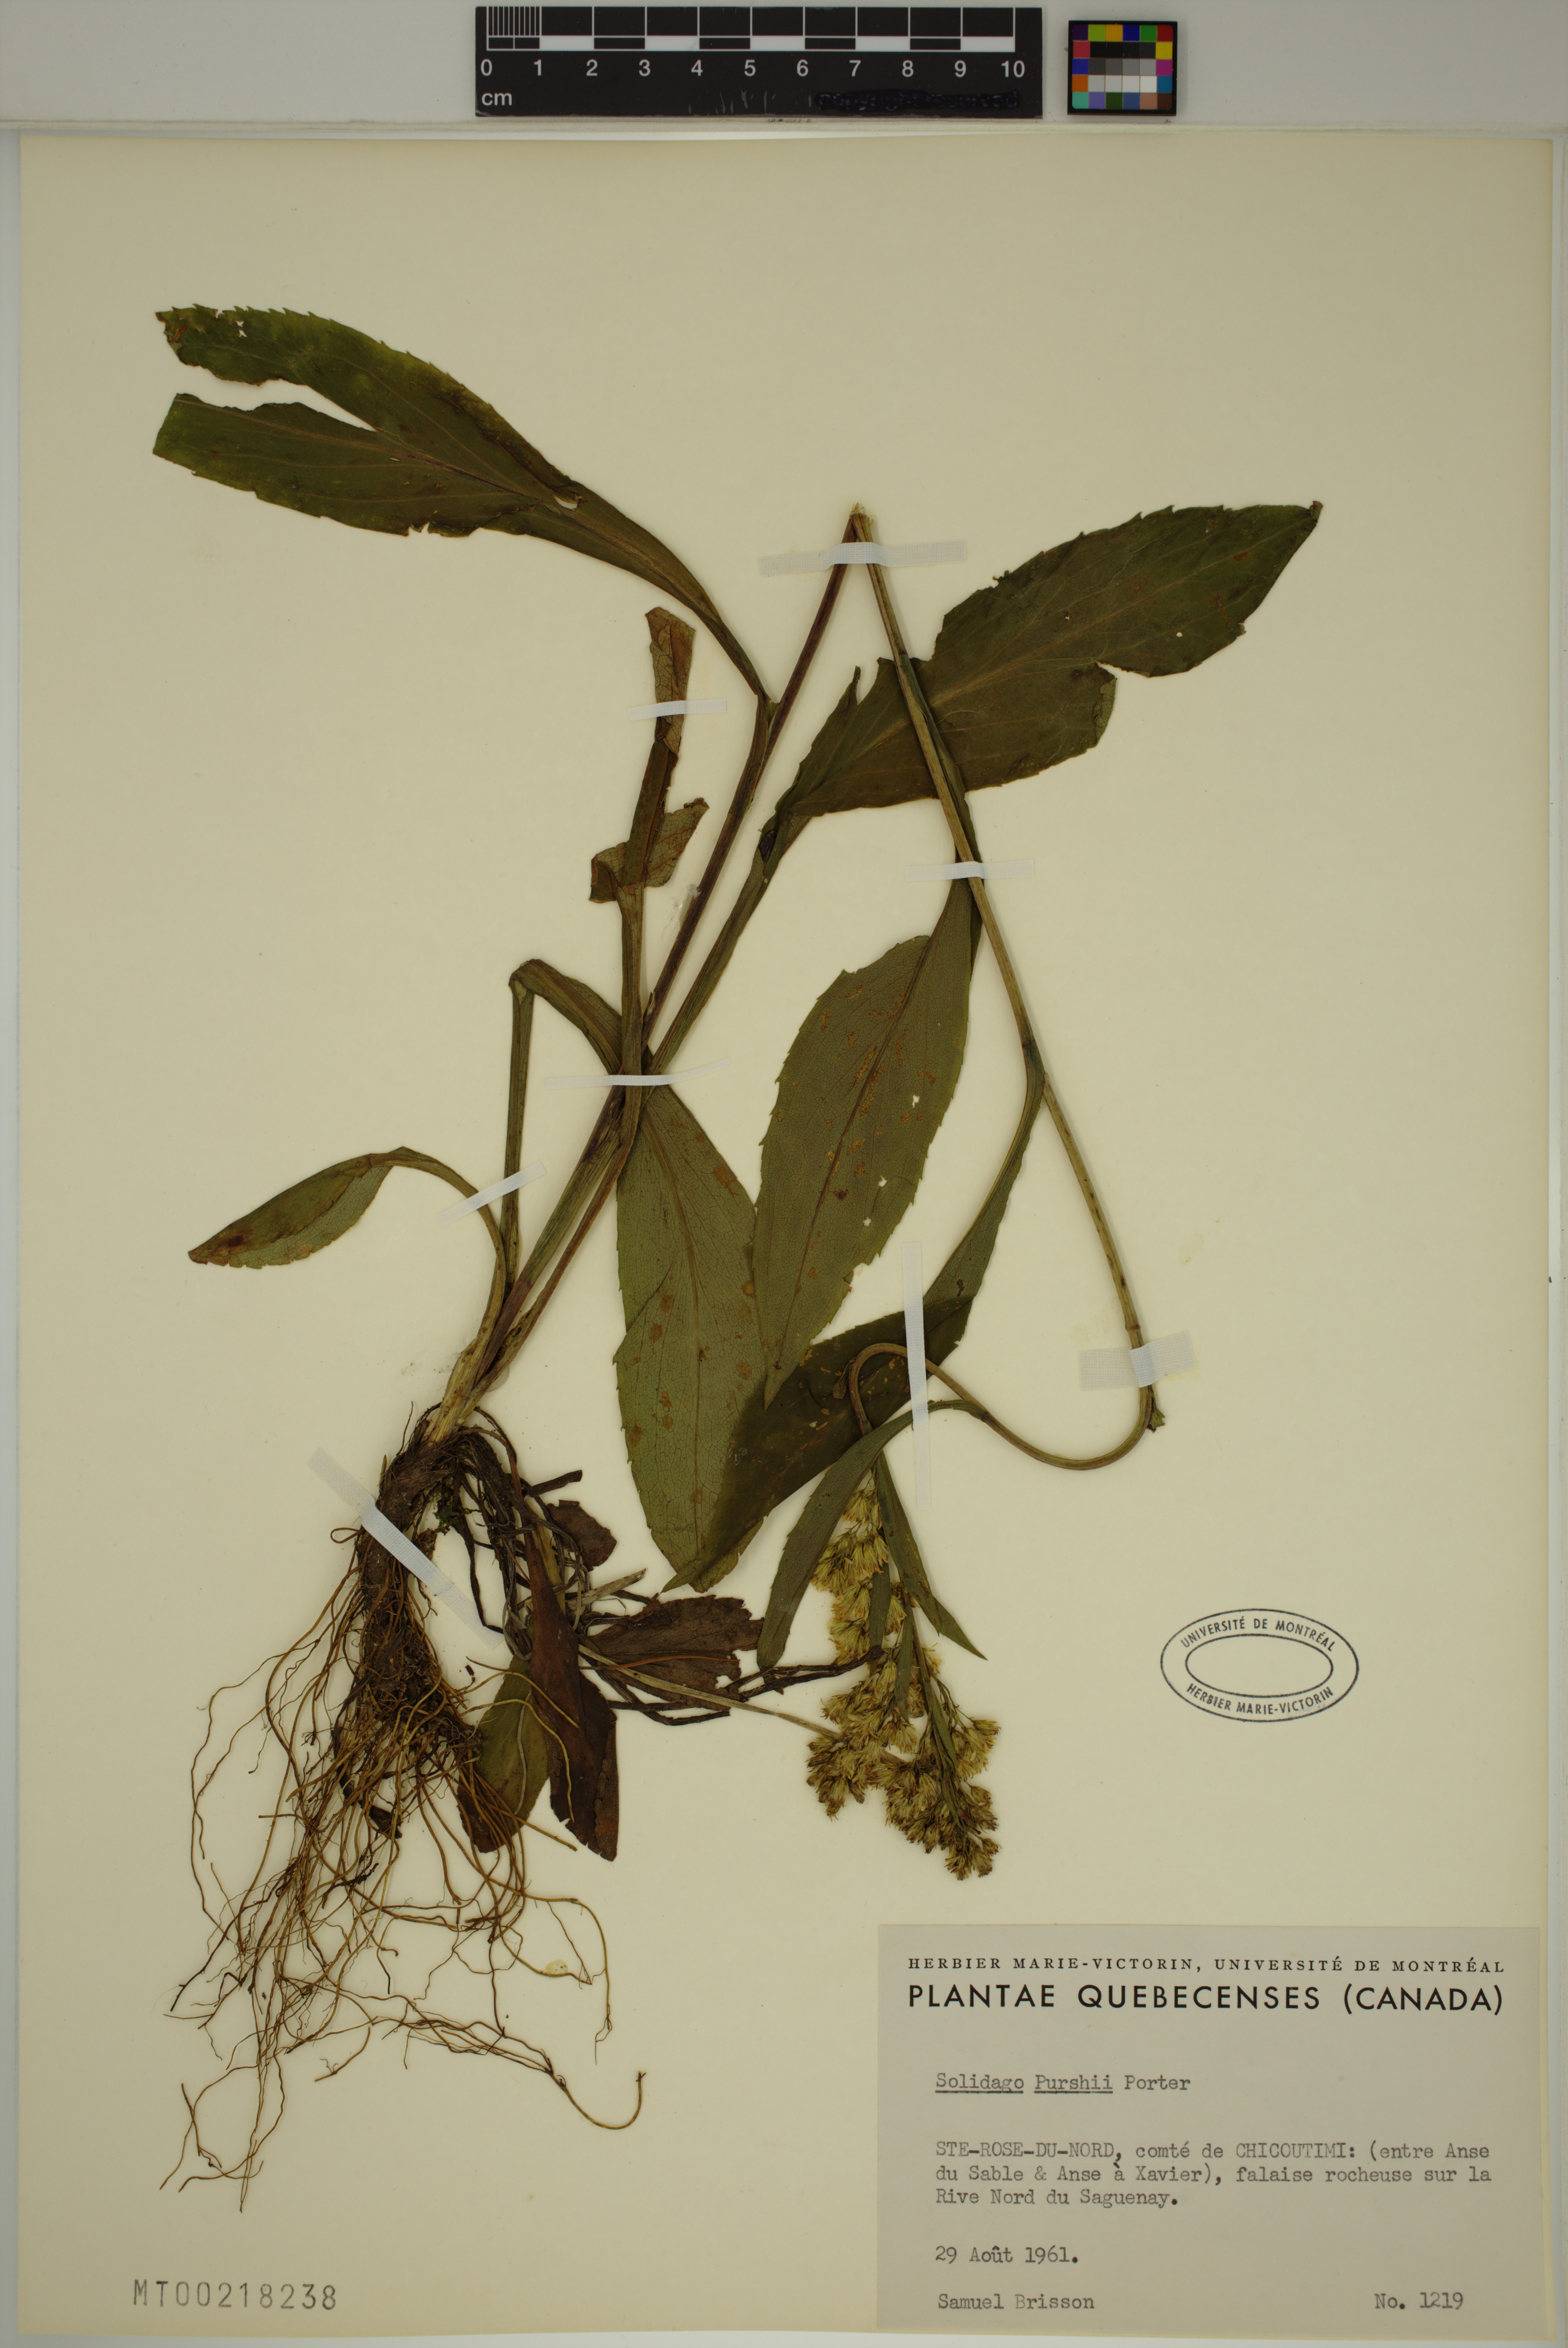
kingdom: Plantae
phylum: Tracheophyta
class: Magnoliopsida
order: Asterales
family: Asteraceae
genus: Solidago
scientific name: Solidago uliginosa
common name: Bog goldenrod
